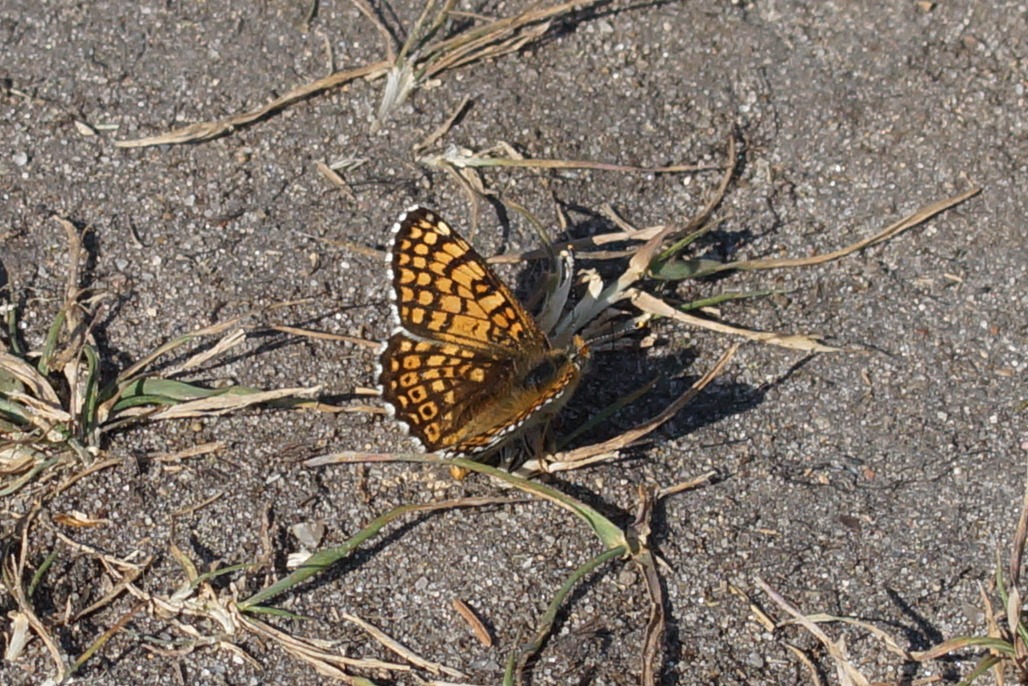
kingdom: Animalia
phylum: Arthropoda
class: Insecta
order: Lepidoptera
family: Nymphalidae
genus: Melitaea
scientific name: Melitaea cinxia
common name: Okkergul pletvinge
